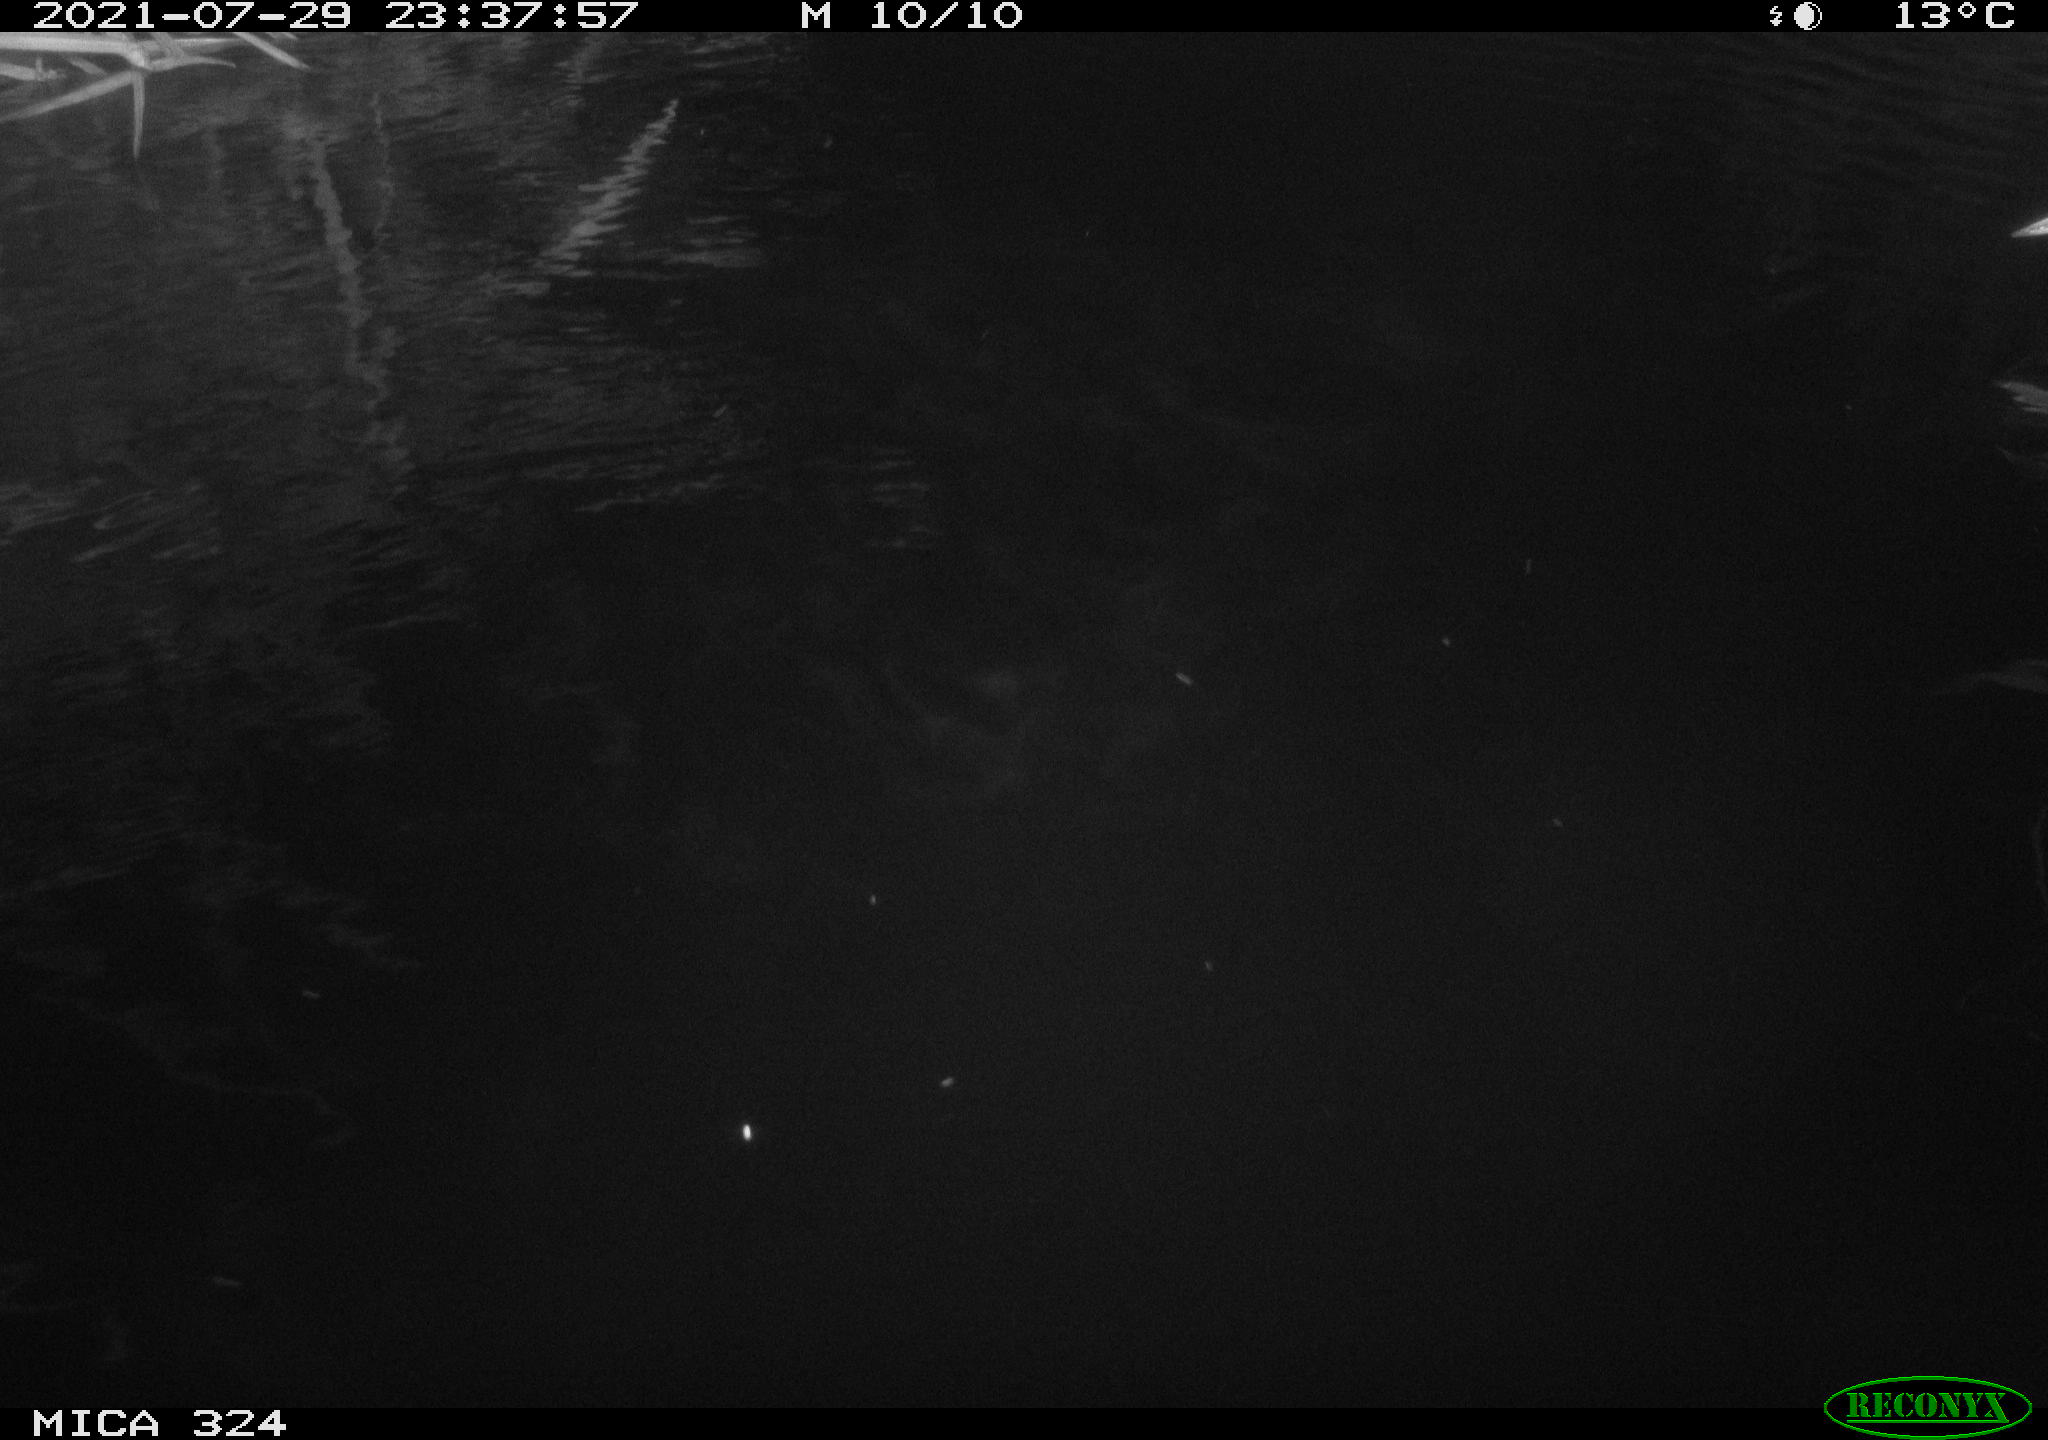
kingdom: Animalia
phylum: Chordata
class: Mammalia
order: Rodentia
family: Cricetidae
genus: Ondatra
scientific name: Ondatra zibethicus
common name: Muskrat
